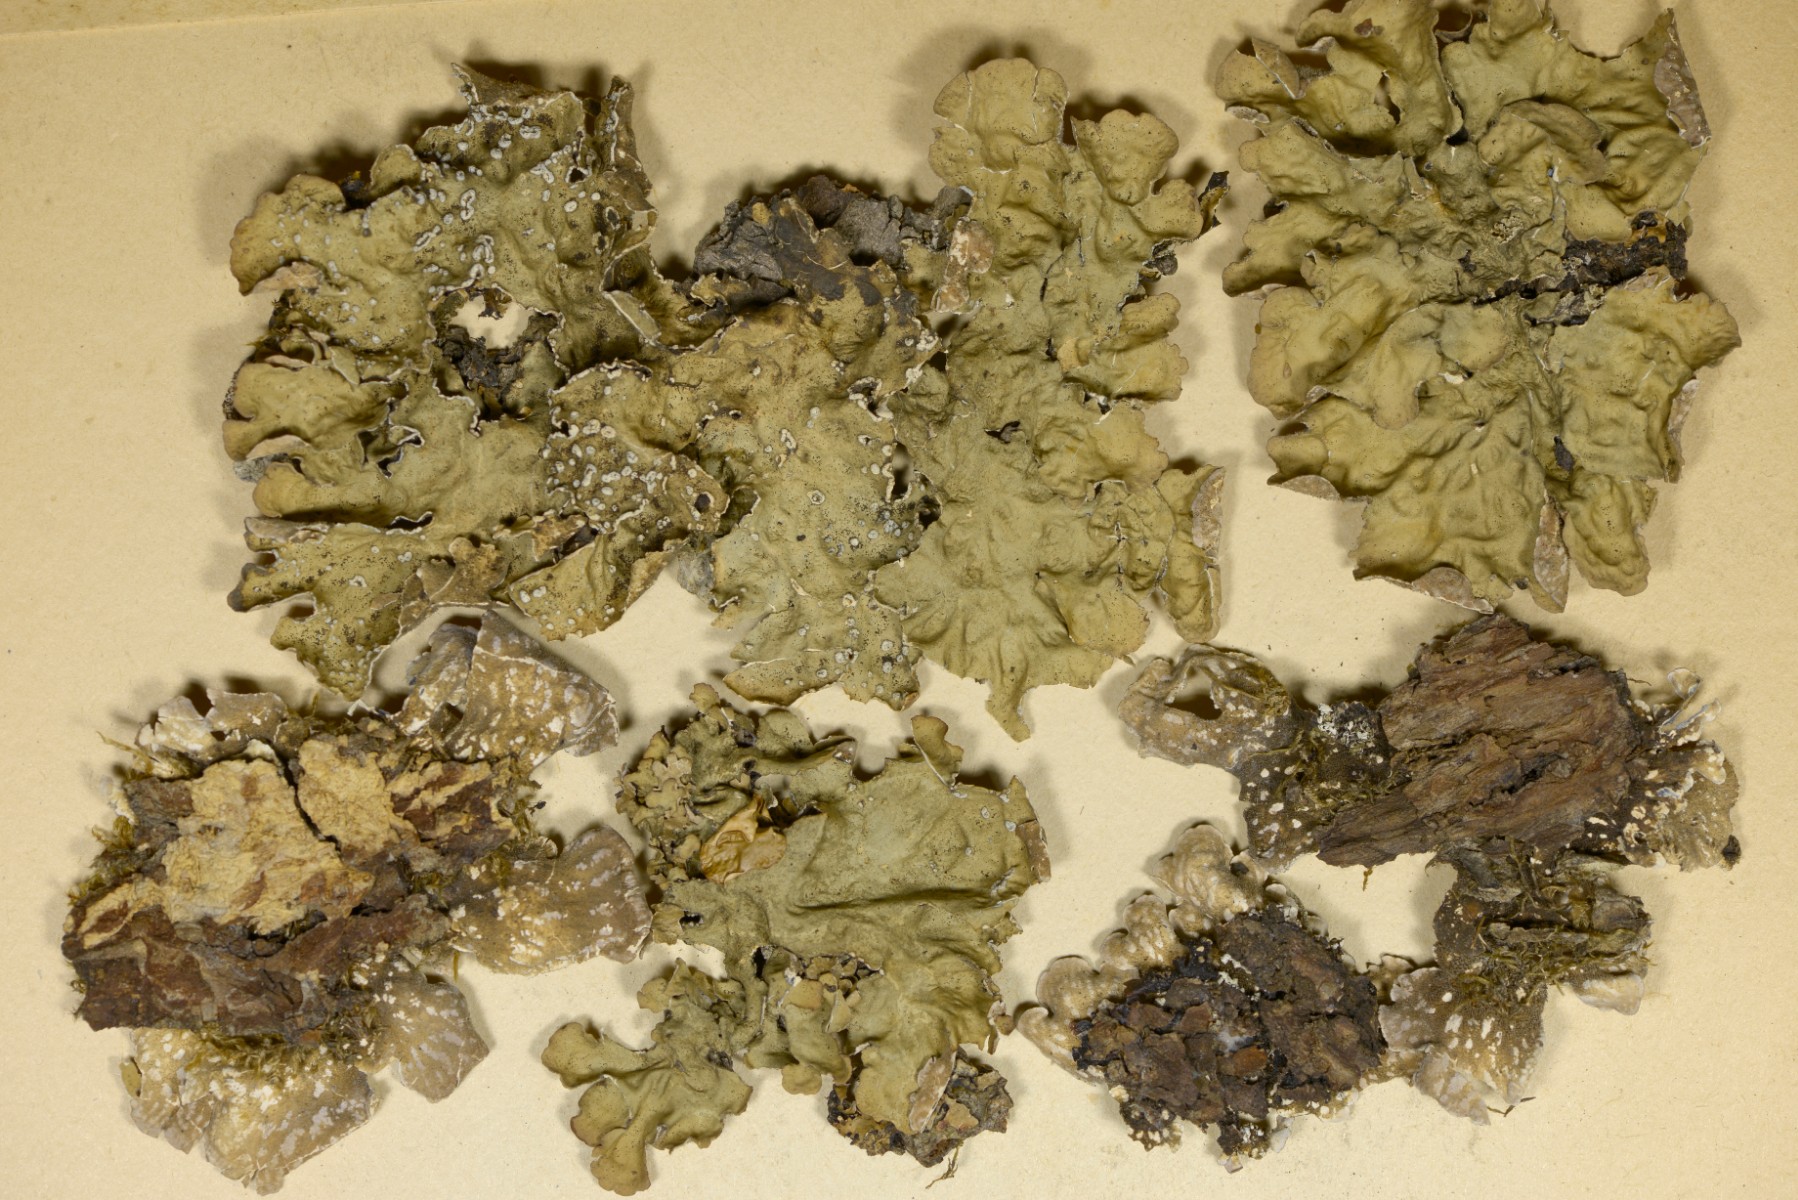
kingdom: Fungi
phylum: Ascomycota
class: Lecanoromycetes
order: Peltigerales
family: Lobariaceae
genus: Lobarina
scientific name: Lobarina scrobiculata
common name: bredfliget lungelav
